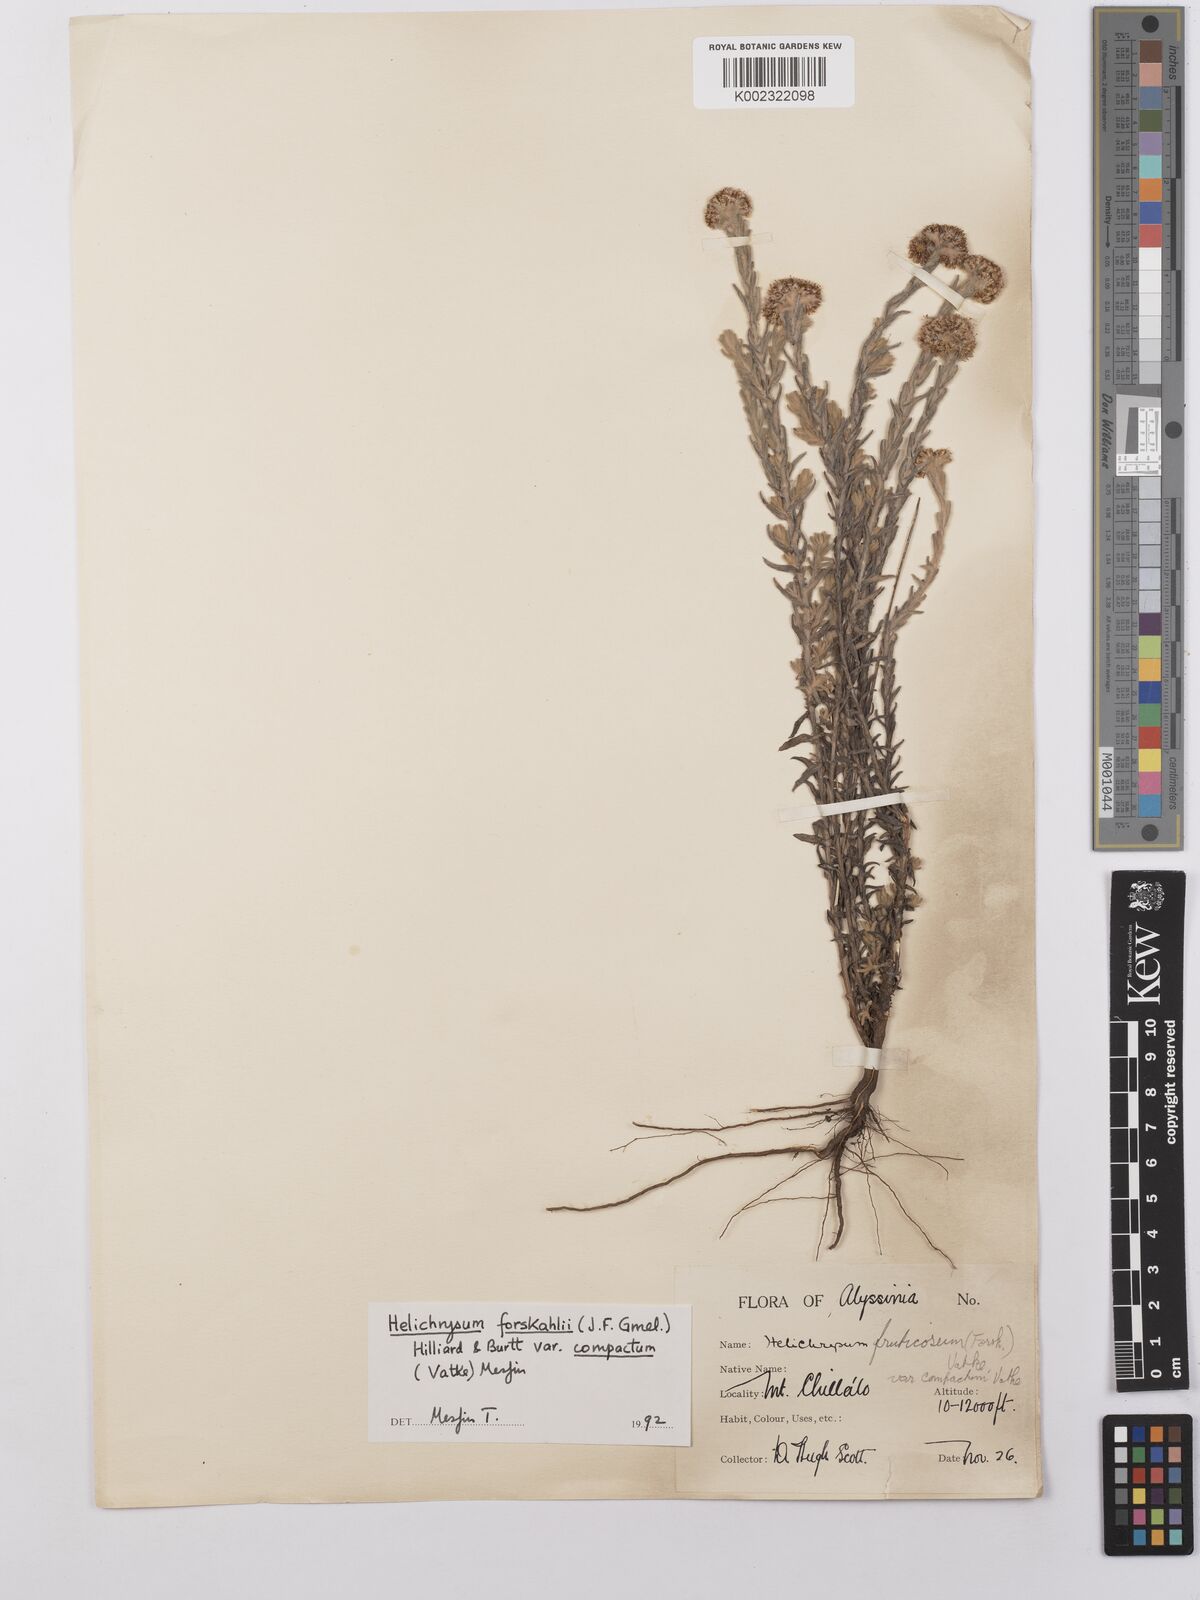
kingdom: Plantae
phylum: Tracheophyta
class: Magnoliopsida
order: Asterales
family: Asteraceae
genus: Helichrysum
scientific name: Helichrysum forskahlii
